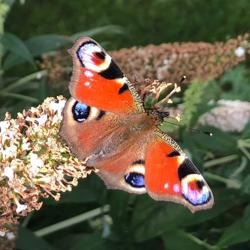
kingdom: Animalia
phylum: Arthropoda
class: Insecta
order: Lepidoptera
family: Nymphalidae
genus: Aglais
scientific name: Aglais io
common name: Dagpåfugleøje
